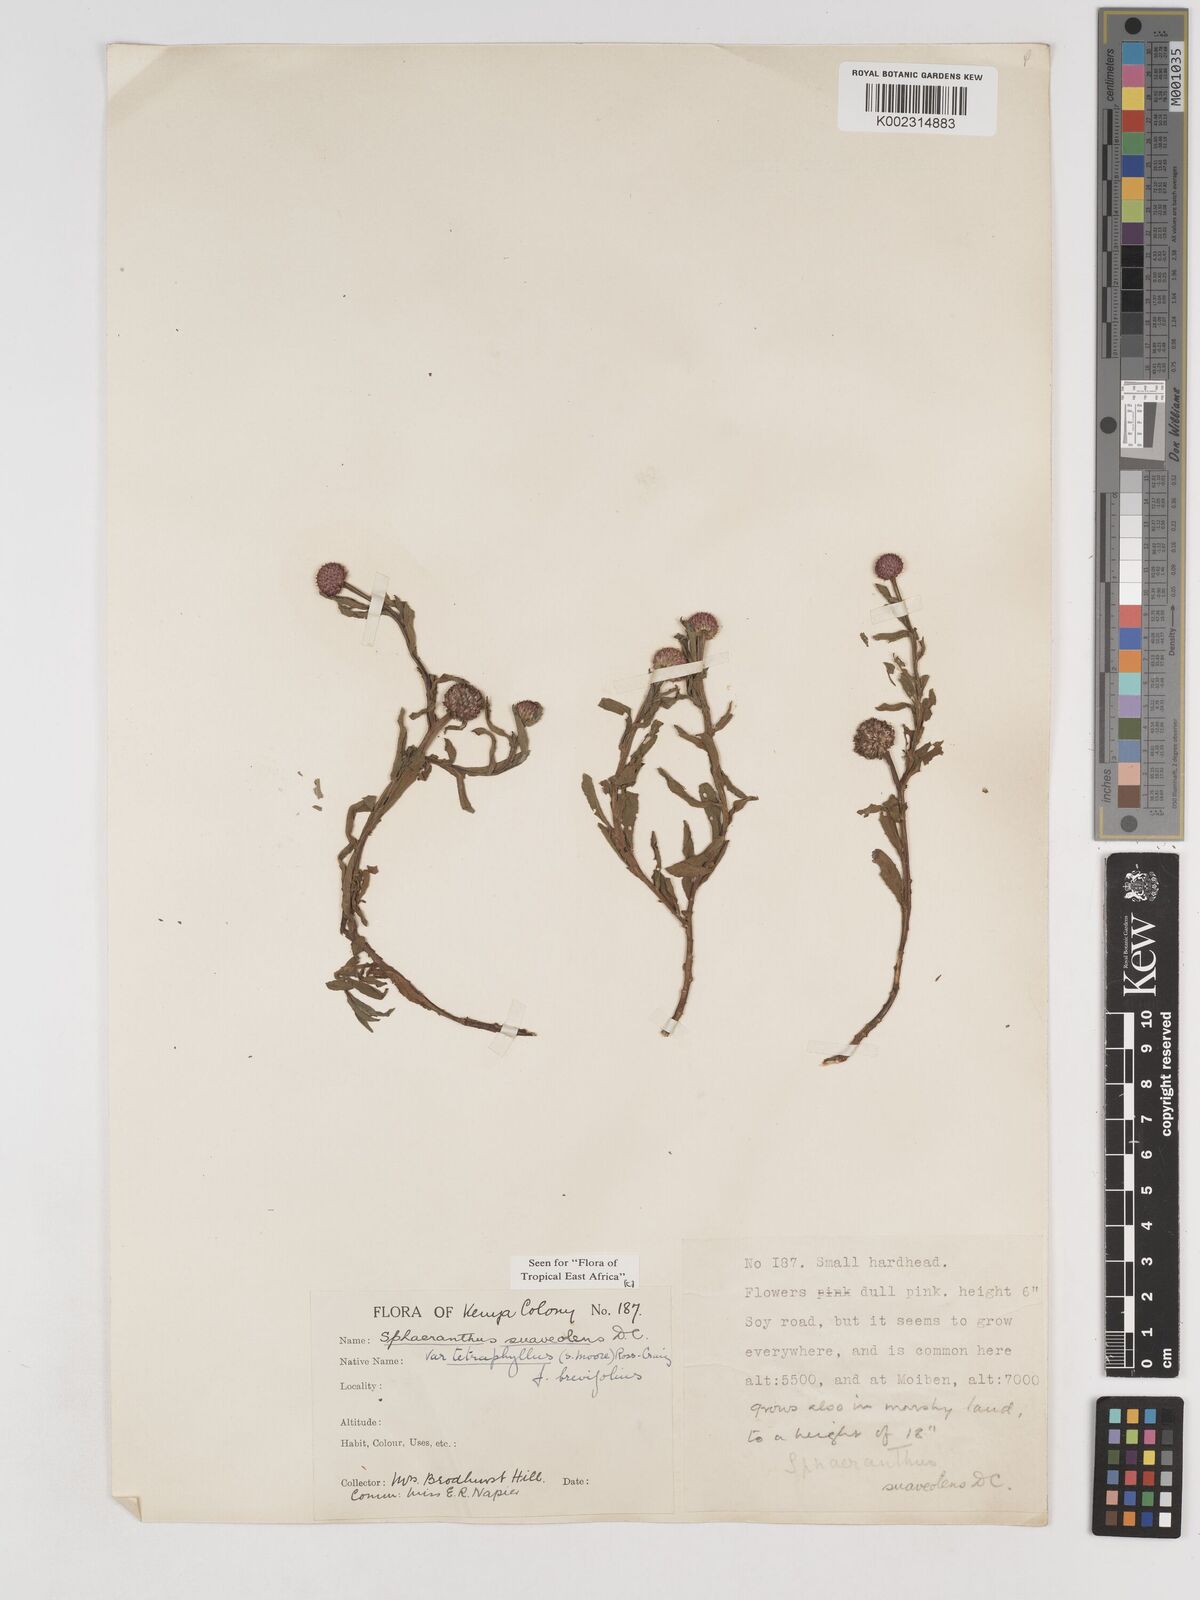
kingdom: Plantae
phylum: Tracheophyta
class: Magnoliopsida
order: Asterales
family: Asteraceae
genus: Sphaeranthus
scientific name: Sphaeranthus suaveolens
